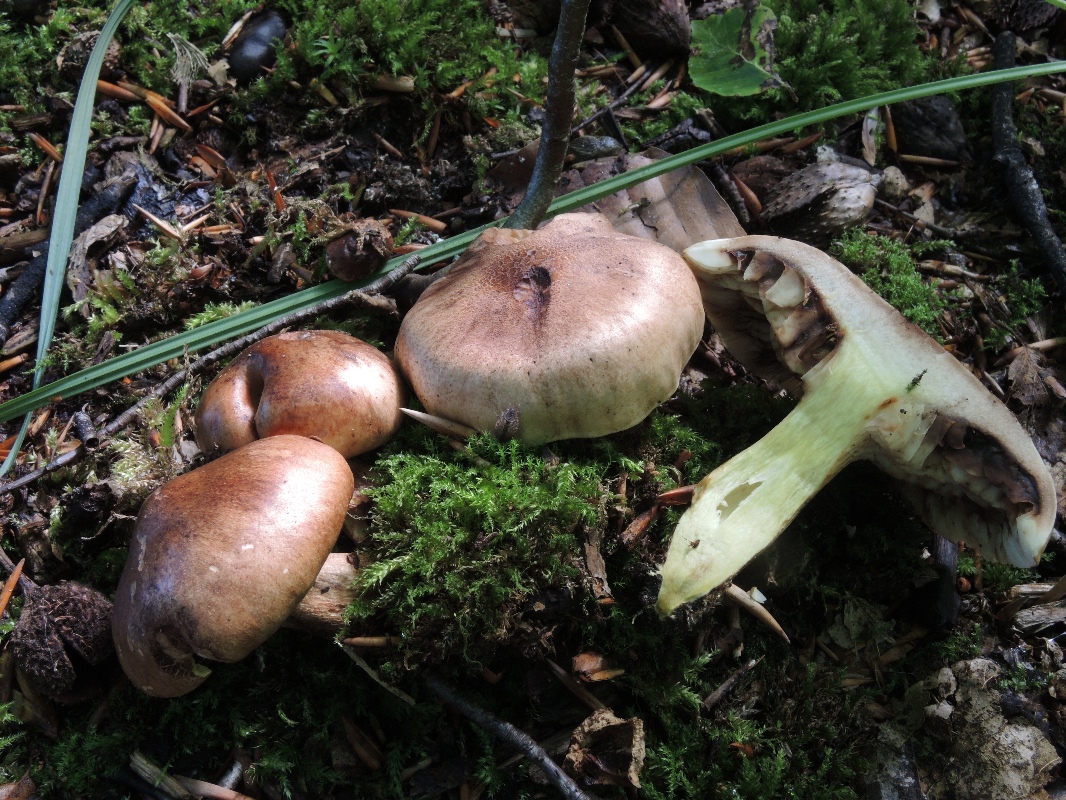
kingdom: Fungi
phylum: Basidiomycota
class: Agaricomycetes
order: Agaricales
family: Tricholomataceae
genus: Tricholoma
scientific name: Tricholoma fulvum
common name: birke-ridderhat
